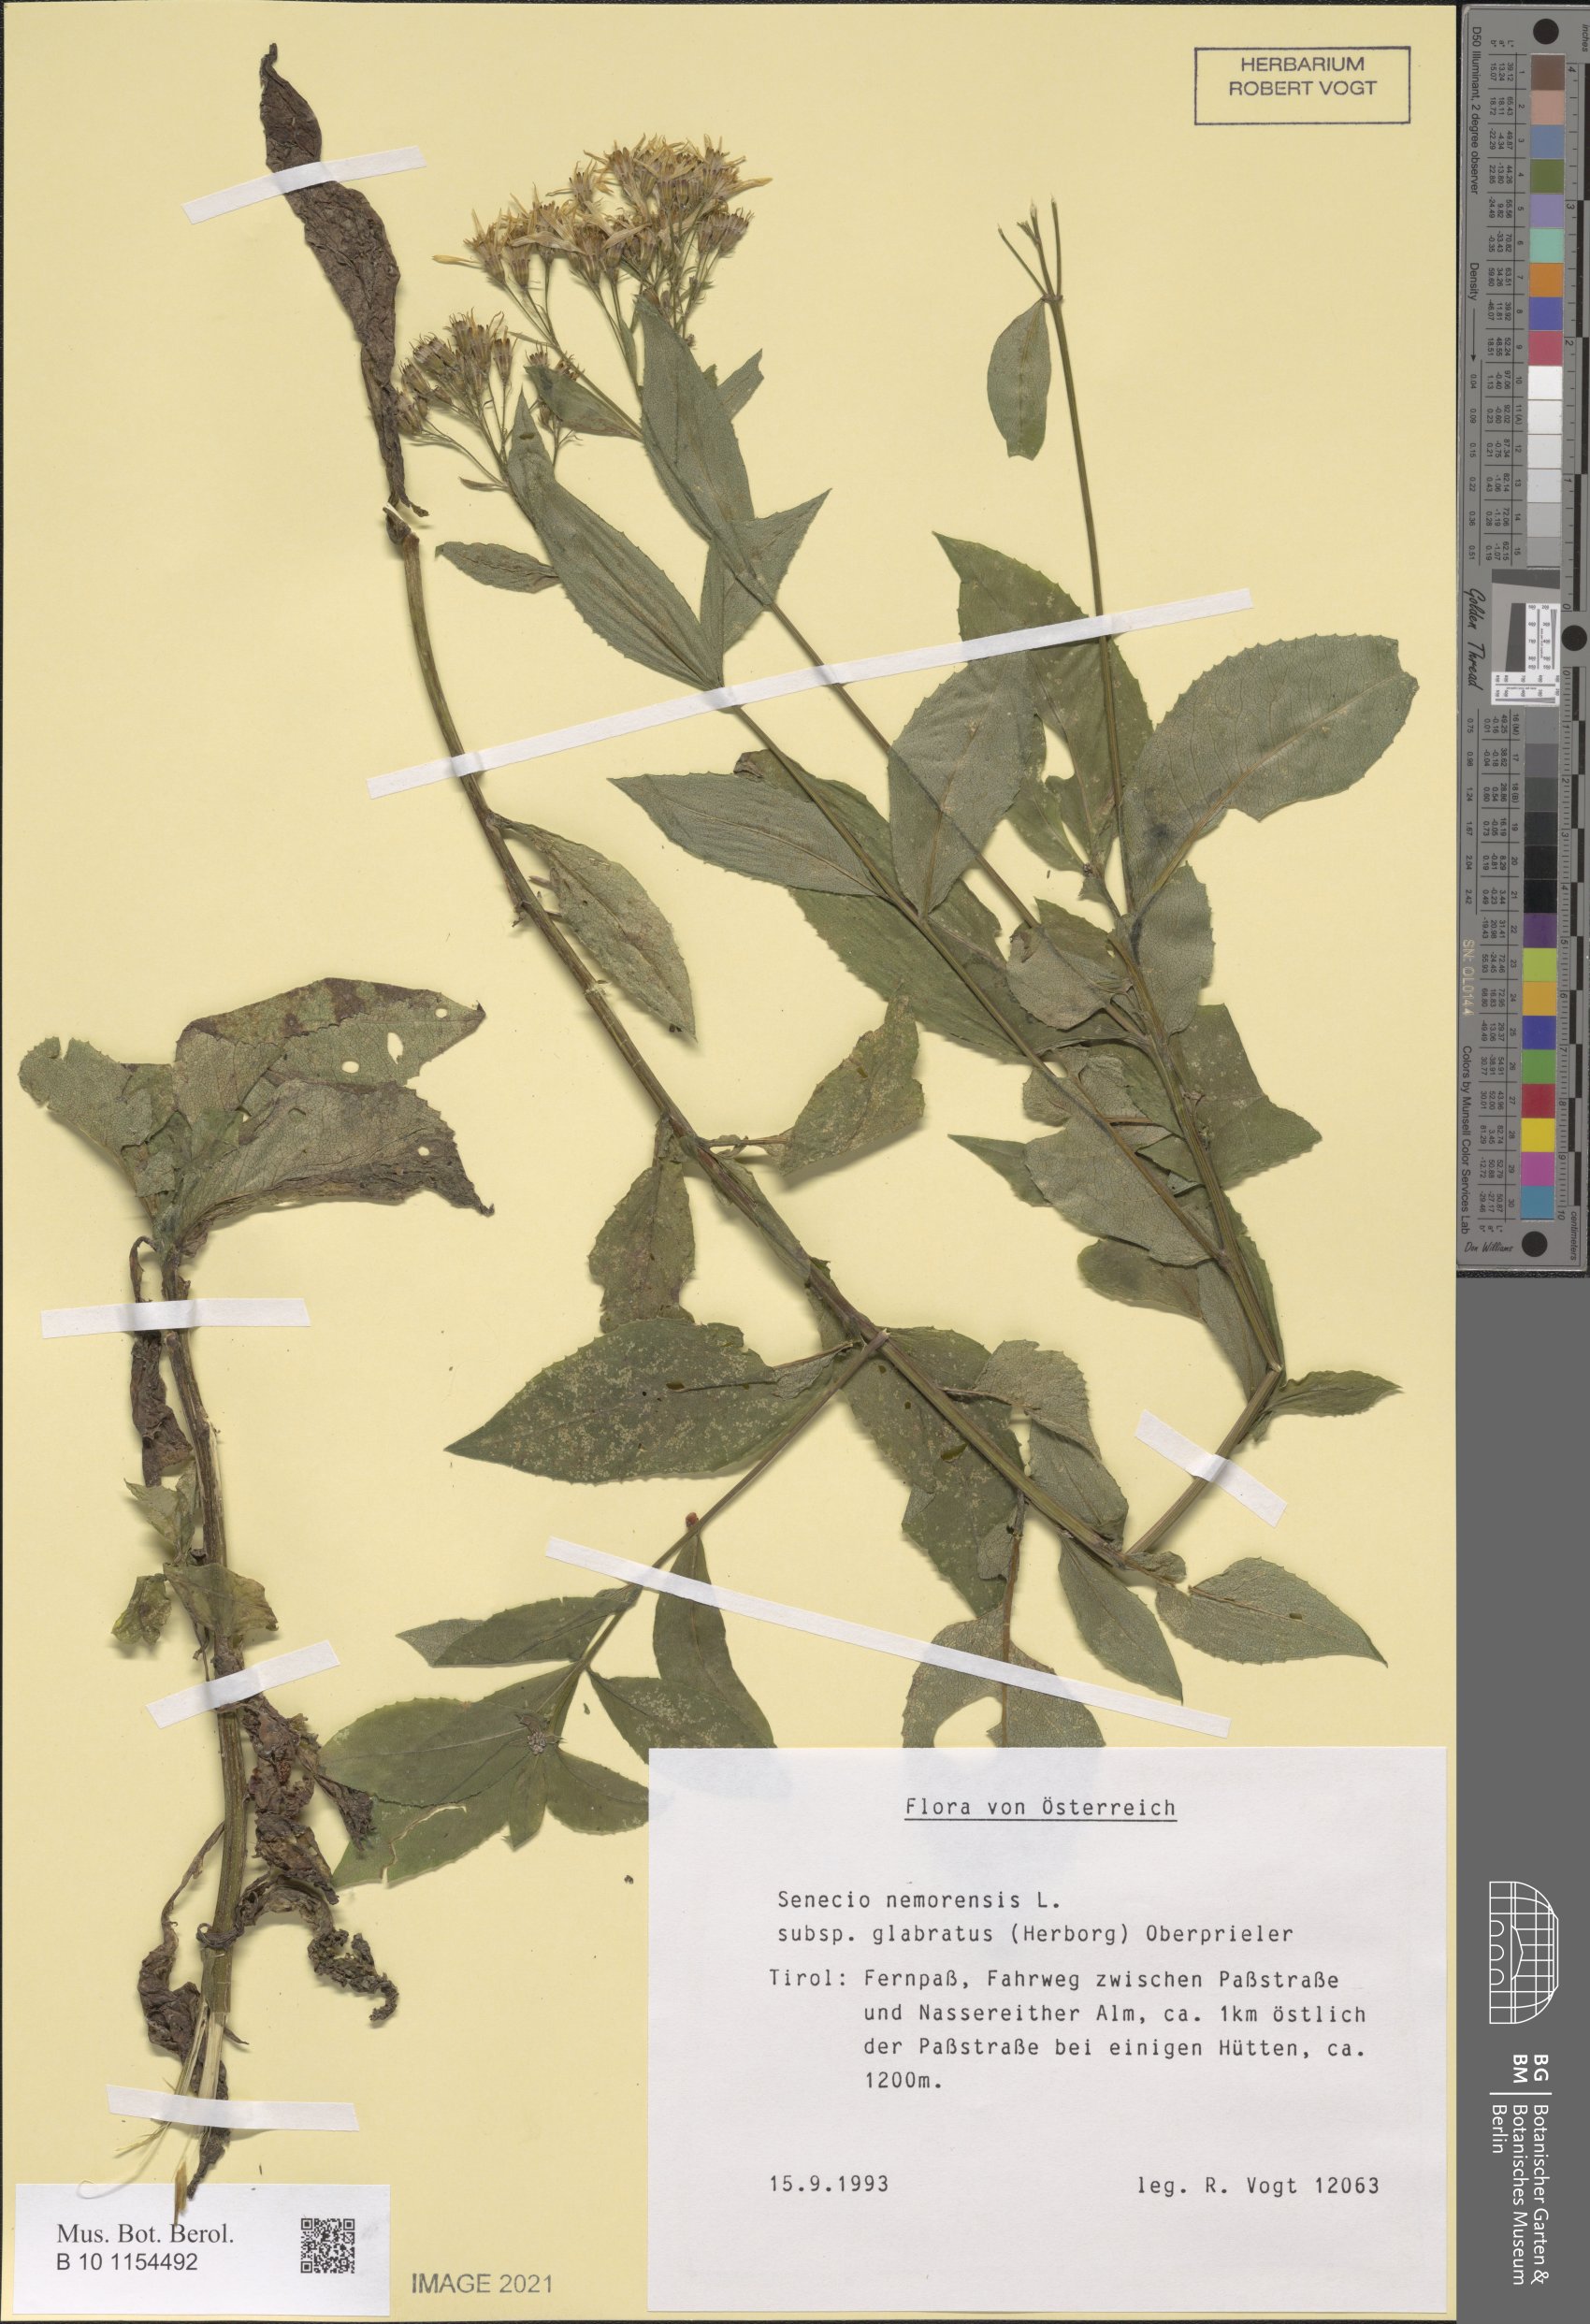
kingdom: Plantae
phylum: Tracheophyta
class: Magnoliopsida
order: Asterales
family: Asteraceae
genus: Senecio
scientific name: Senecio germanicus
